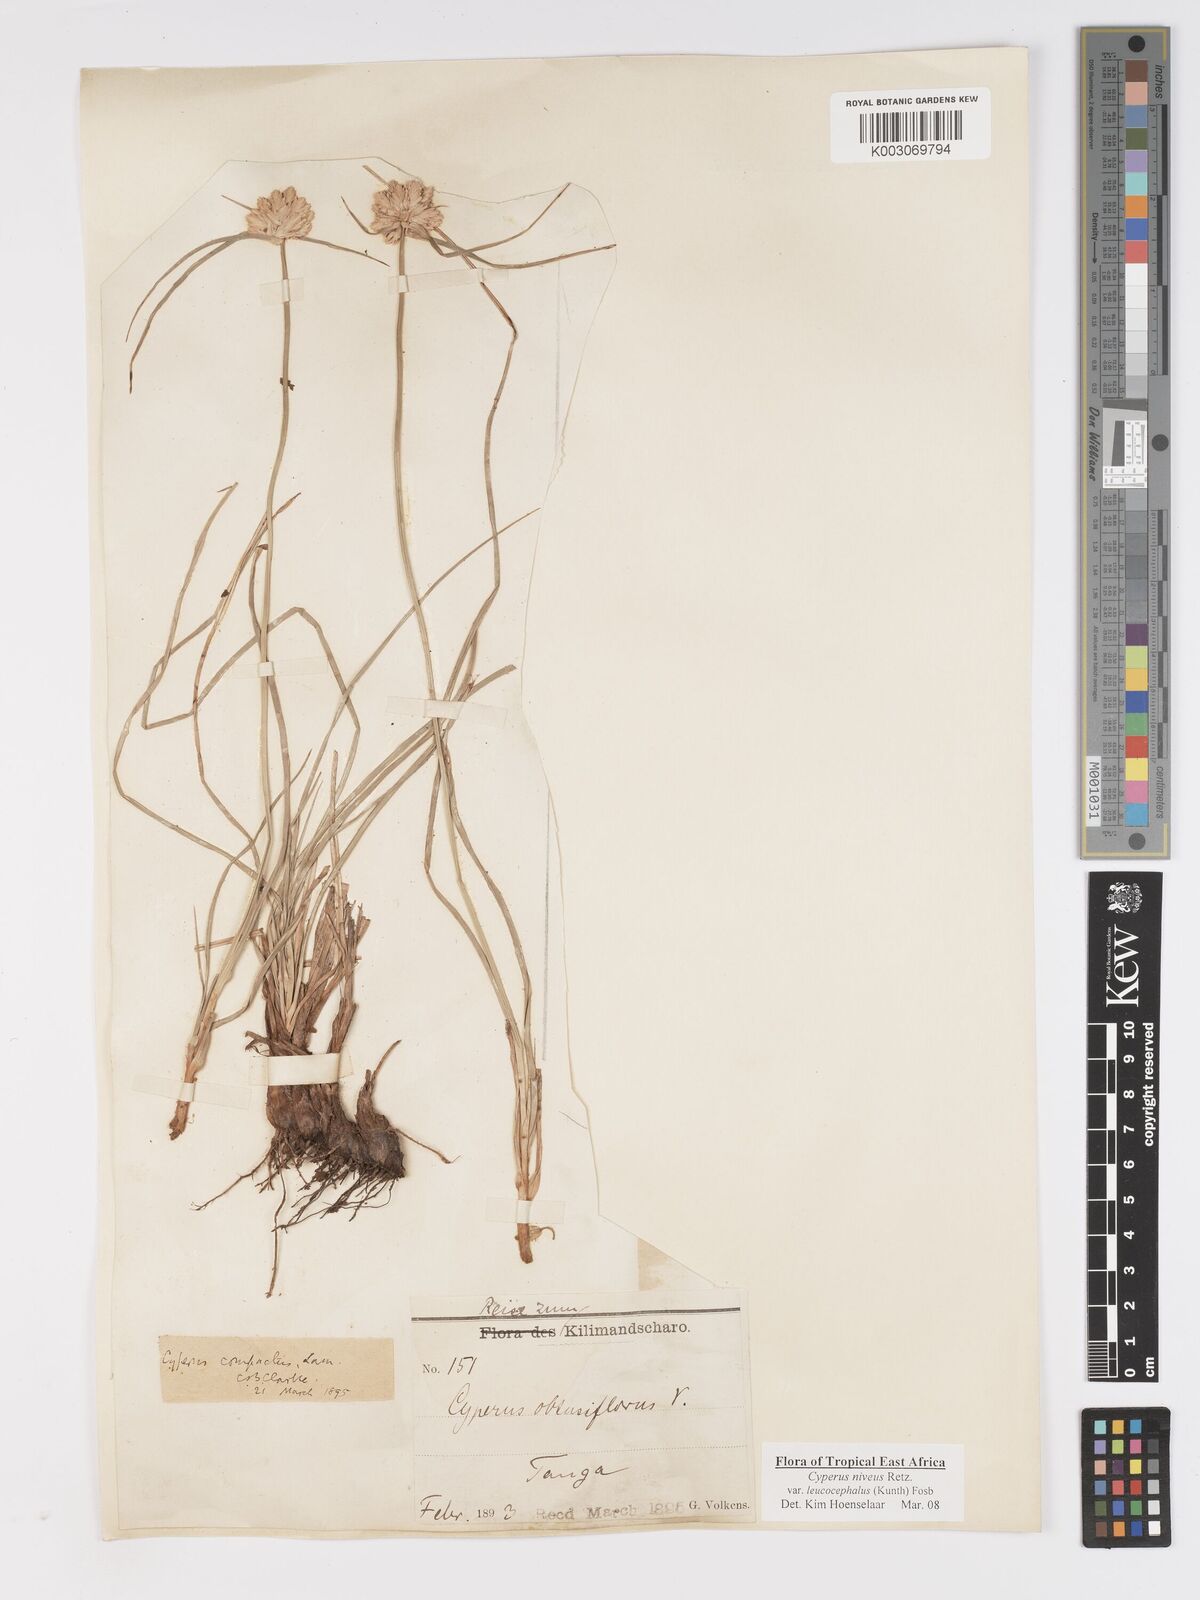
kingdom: Plantae
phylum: Tracheophyta
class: Liliopsida
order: Poales
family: Cyperaceae
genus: Cyperus
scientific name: Cyperus niveus
